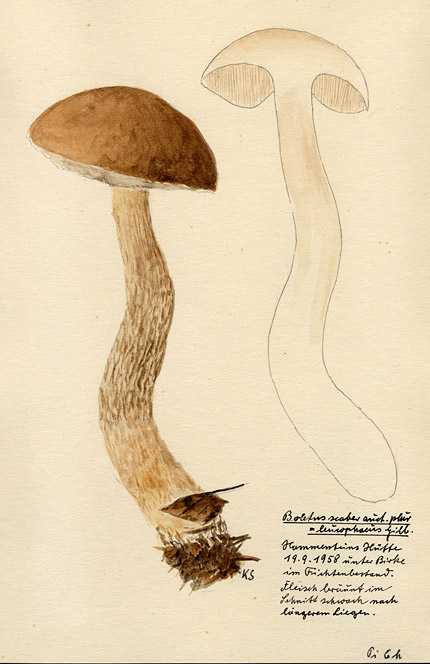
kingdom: Fungi
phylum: Basidiomycota
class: Agaricomycetes
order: Boletales
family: Boletaceae
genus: Leccinum
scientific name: Leccinum leucophaeum
